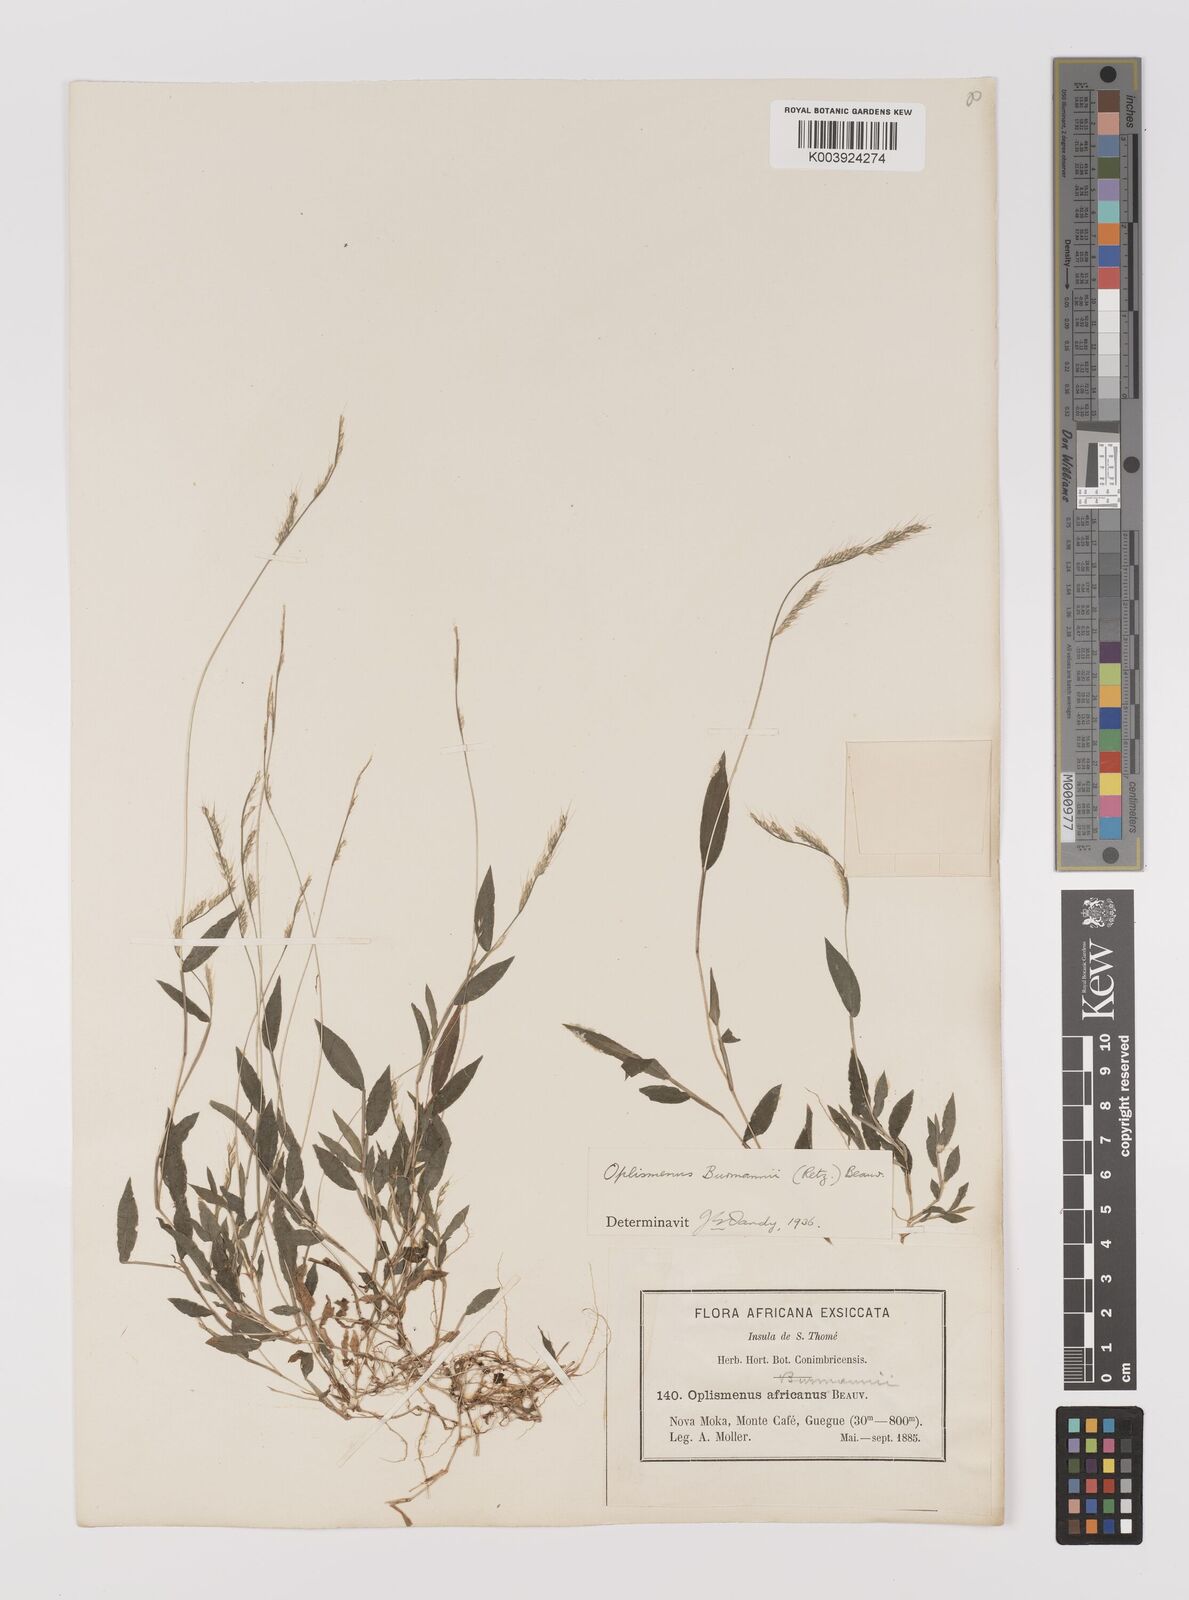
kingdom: Plantae
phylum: Tracheophyta
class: Liliopsida
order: Poales
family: Poaceae
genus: Oplismenus
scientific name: Oplismenus burmanni
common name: Burmann's basketgrass
